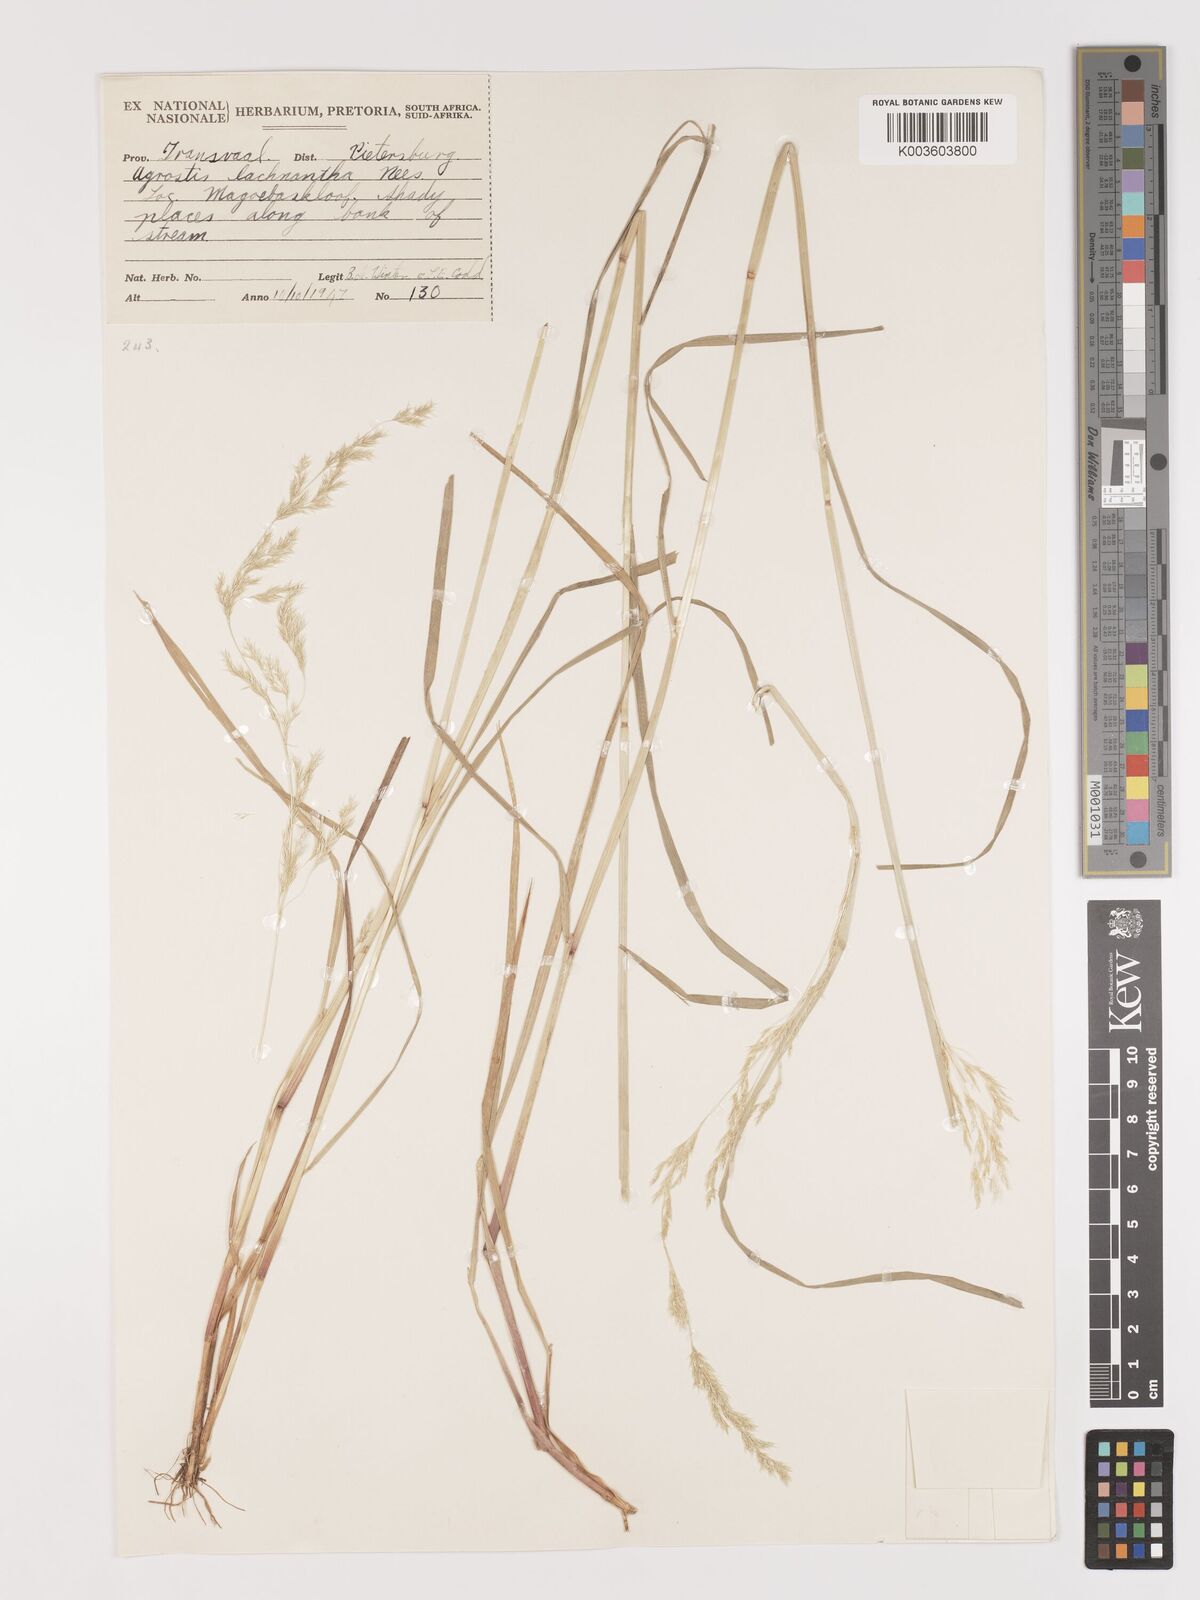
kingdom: Plantae
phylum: Tracheophyta
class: Liliopsida
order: Poales
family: Poaceae
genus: Lachnagrostis
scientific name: Lachnagrostis lachnantha
